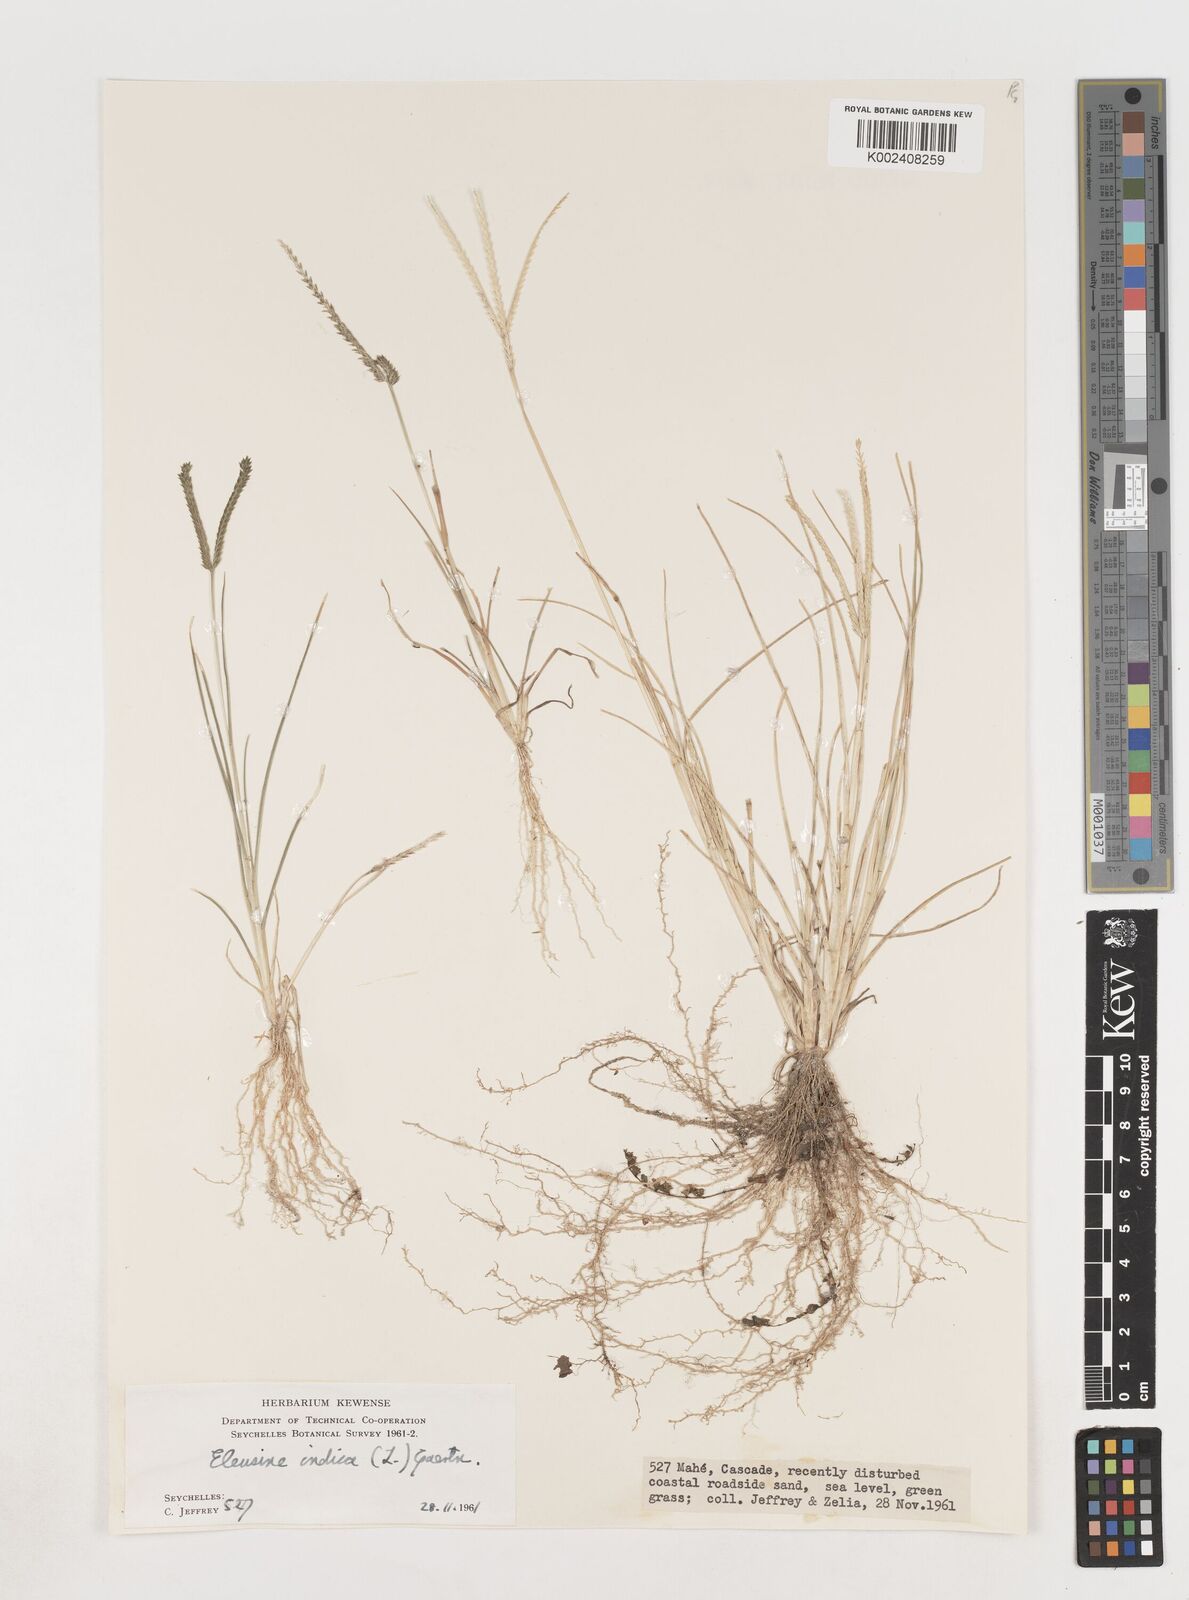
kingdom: Plantae
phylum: Tracheophyta
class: Liliopsida
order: Poales
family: Poaceae
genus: Eleusine
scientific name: Eleusine indica
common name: Yard-grass
